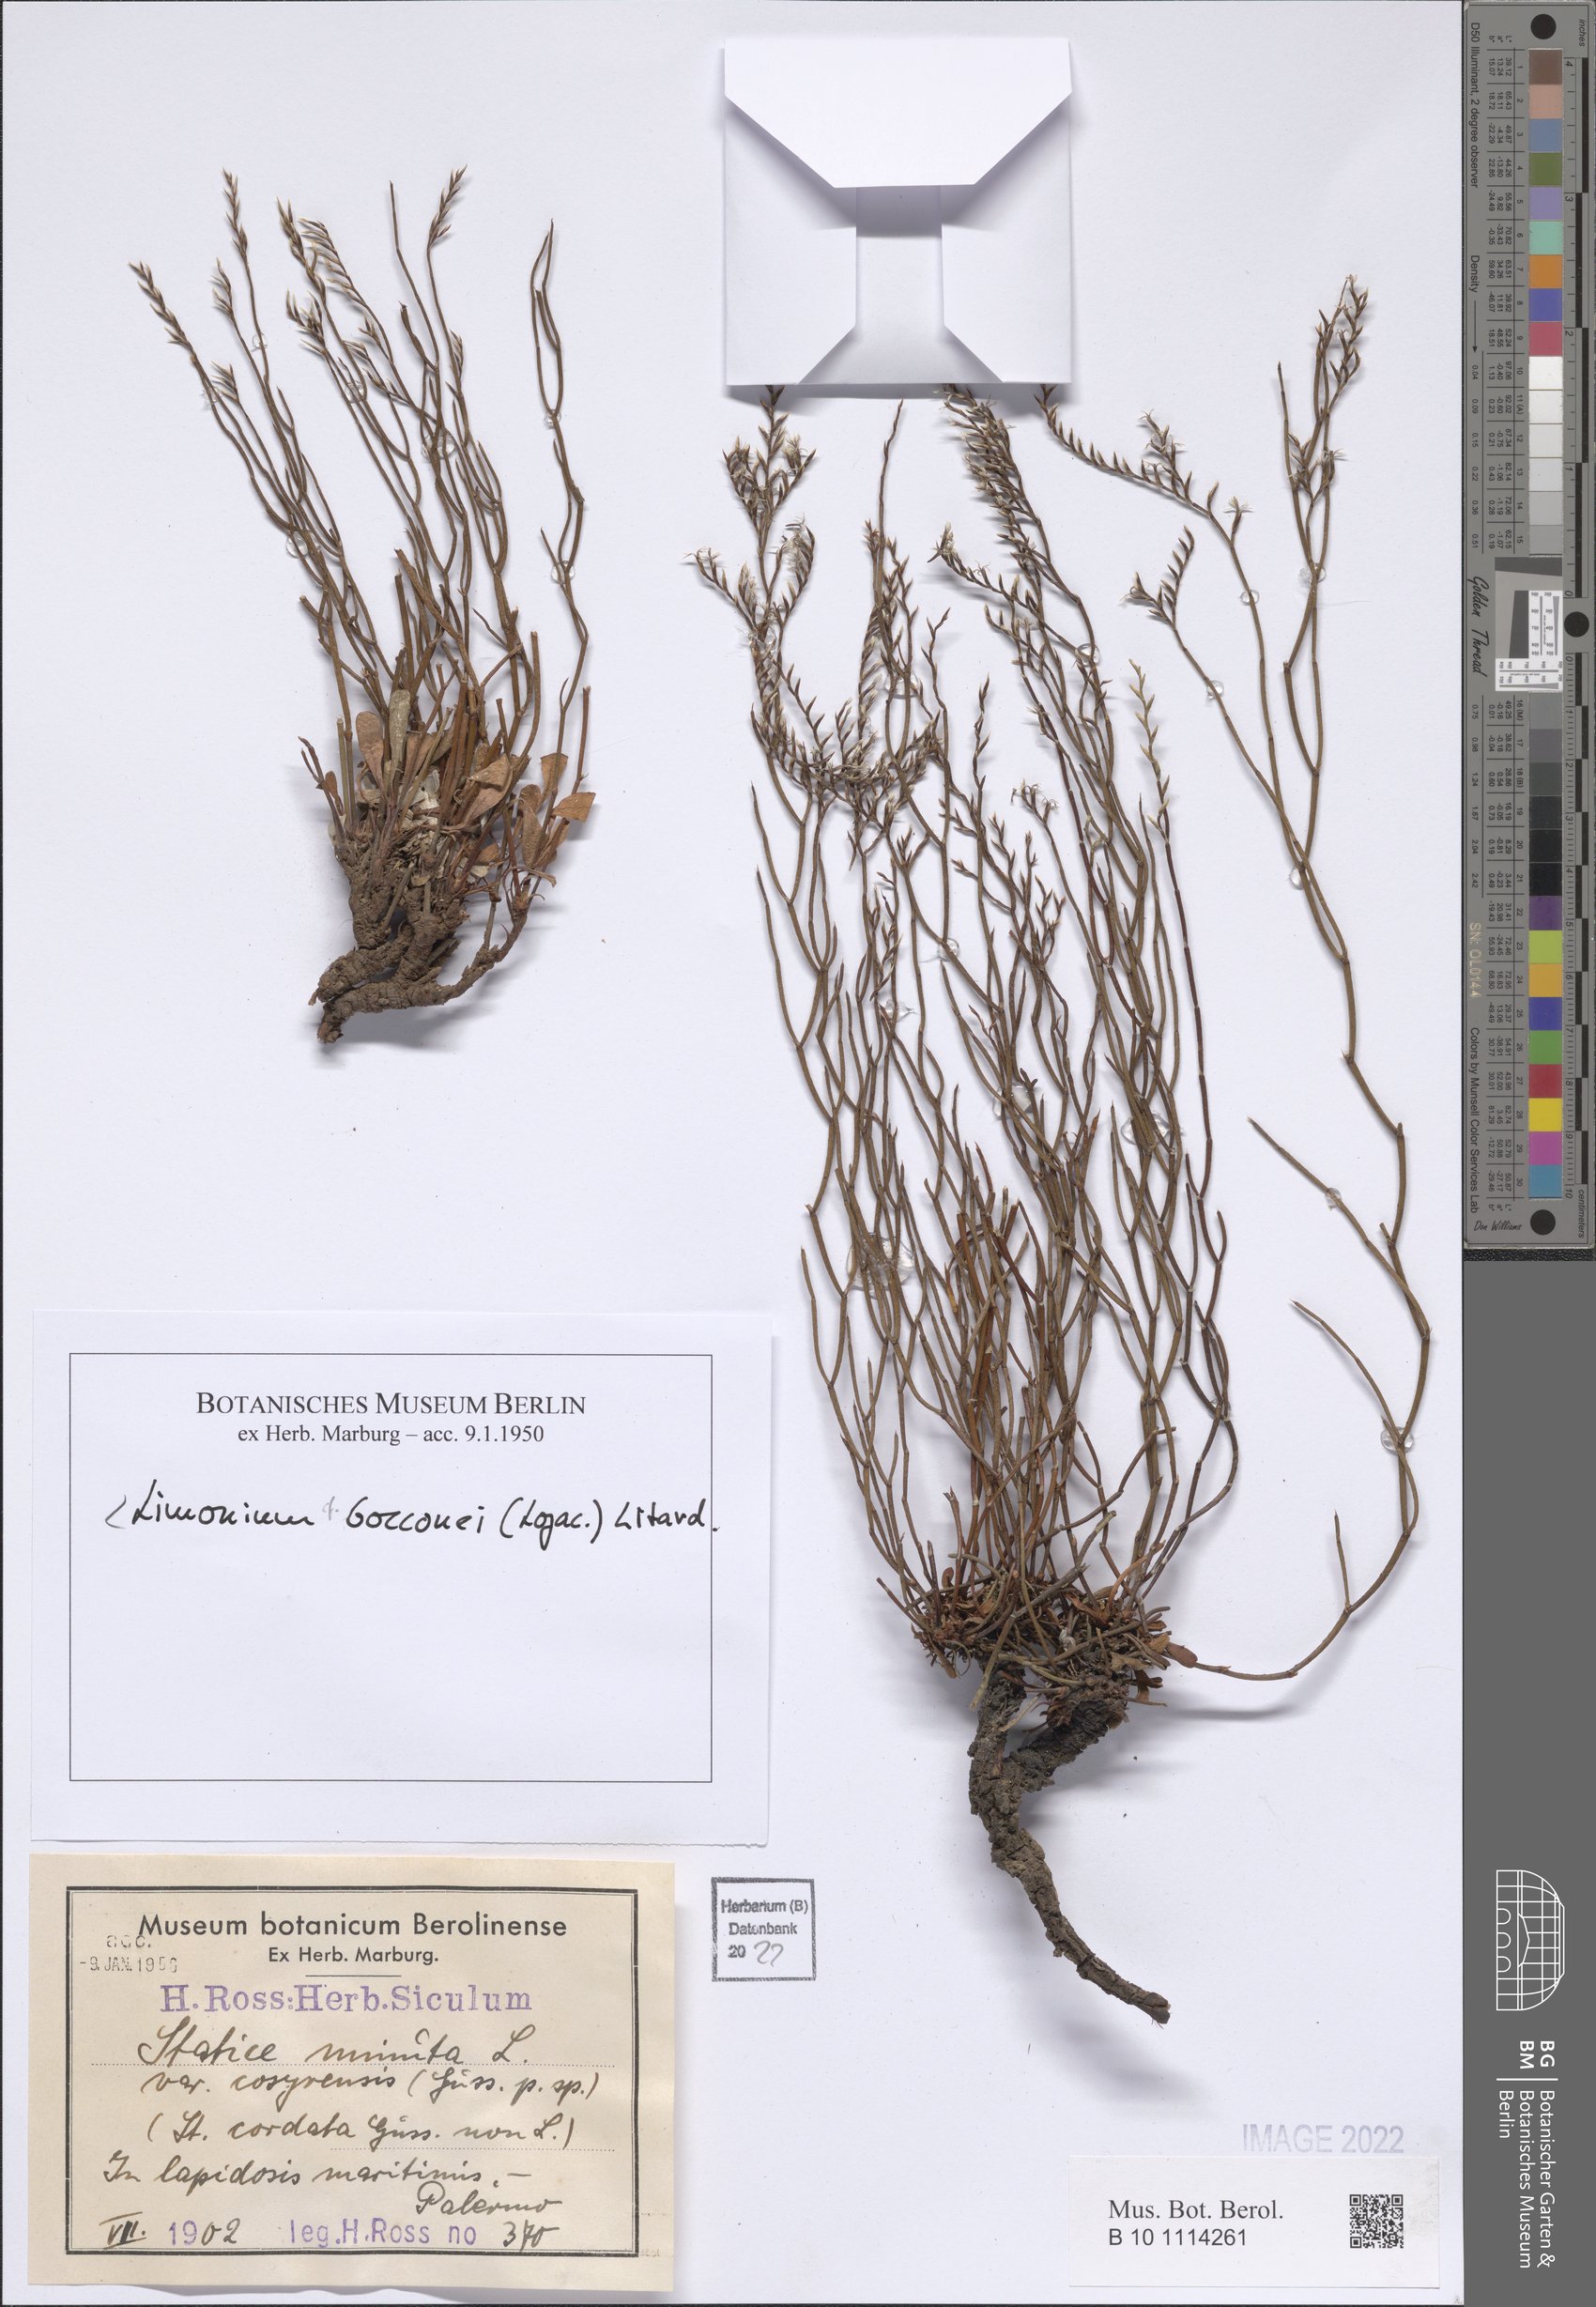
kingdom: Plantae
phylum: Tracheophyta
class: Magnoliopsida
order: Caryophyllales
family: Plumbaginaceae
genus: Limonium
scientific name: Limonium bocconei
